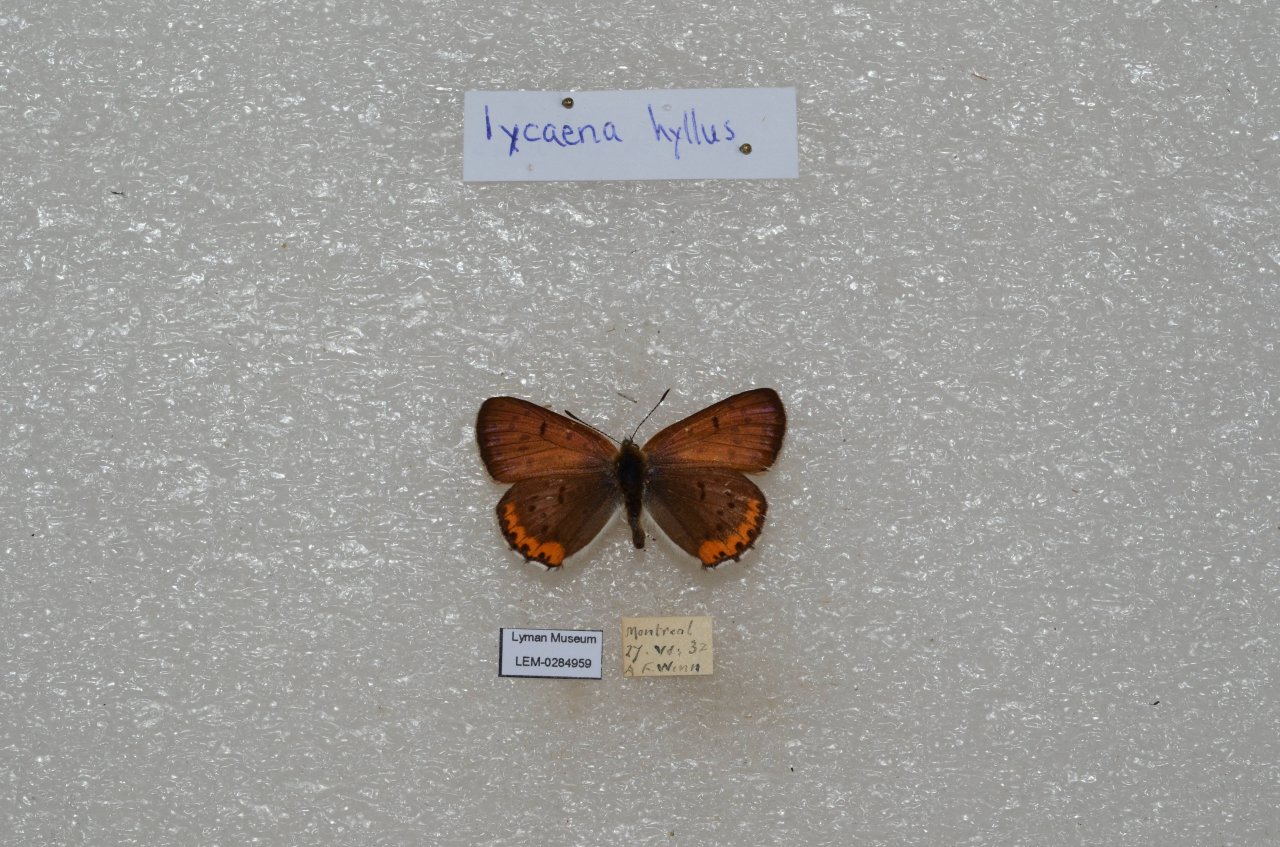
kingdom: Animalia
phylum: Arthropoda
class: Insecta
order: Lepidoptera
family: Sesiidae
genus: Sesia
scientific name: Sesia Lycaena hyllus
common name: Bronze Copper
